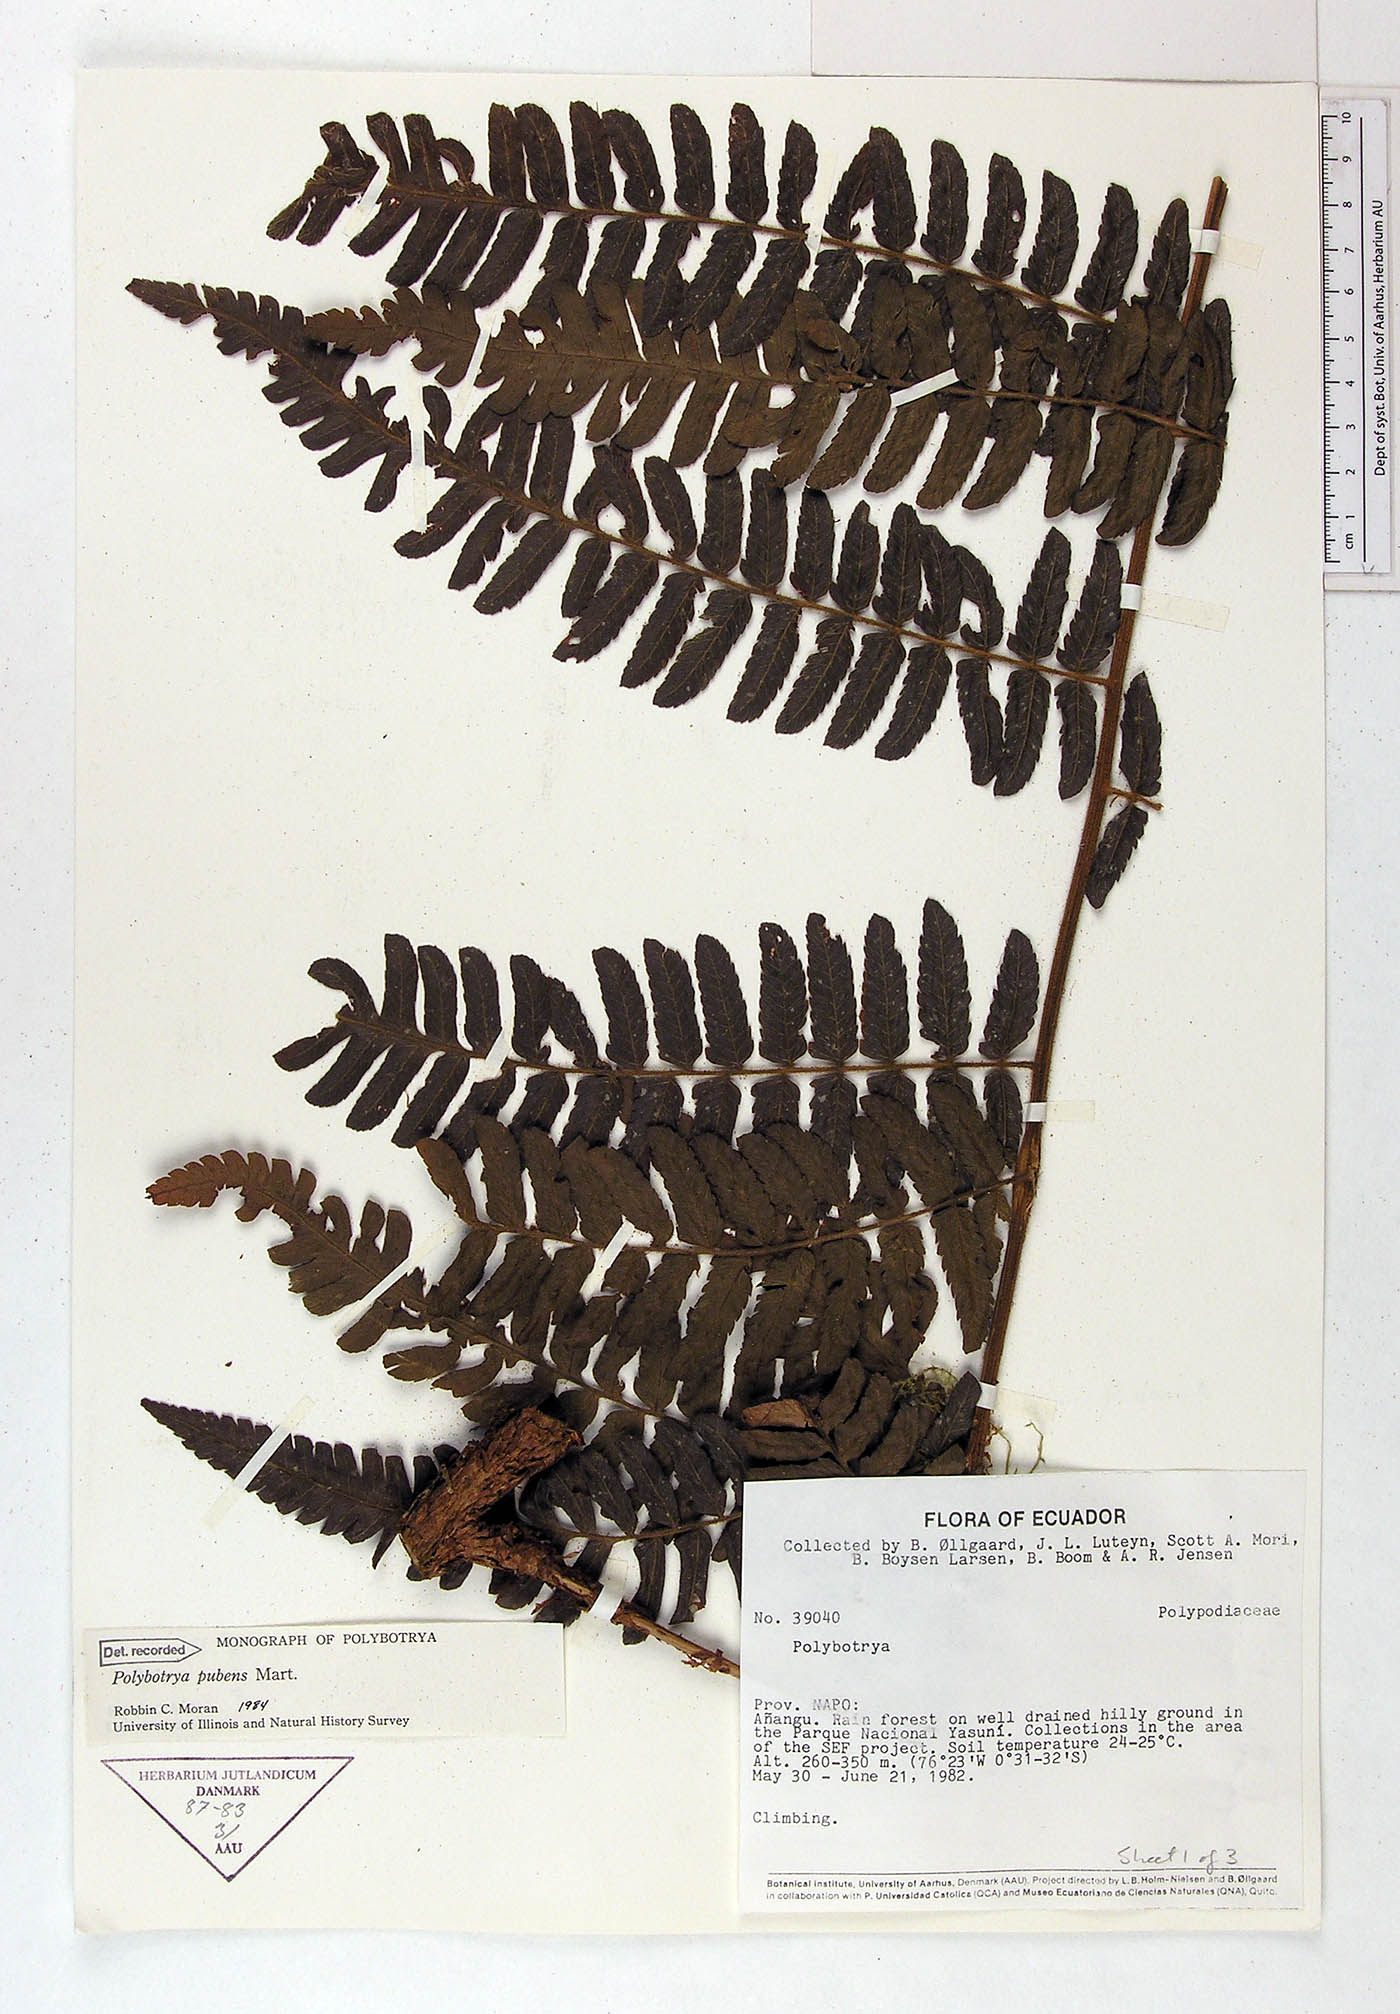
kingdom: Plantae
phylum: Tracheophyta
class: Polypodiopsida
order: Polypodiales
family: Dryopteridaceae
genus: Polybotrya
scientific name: Polybotrya pubens
